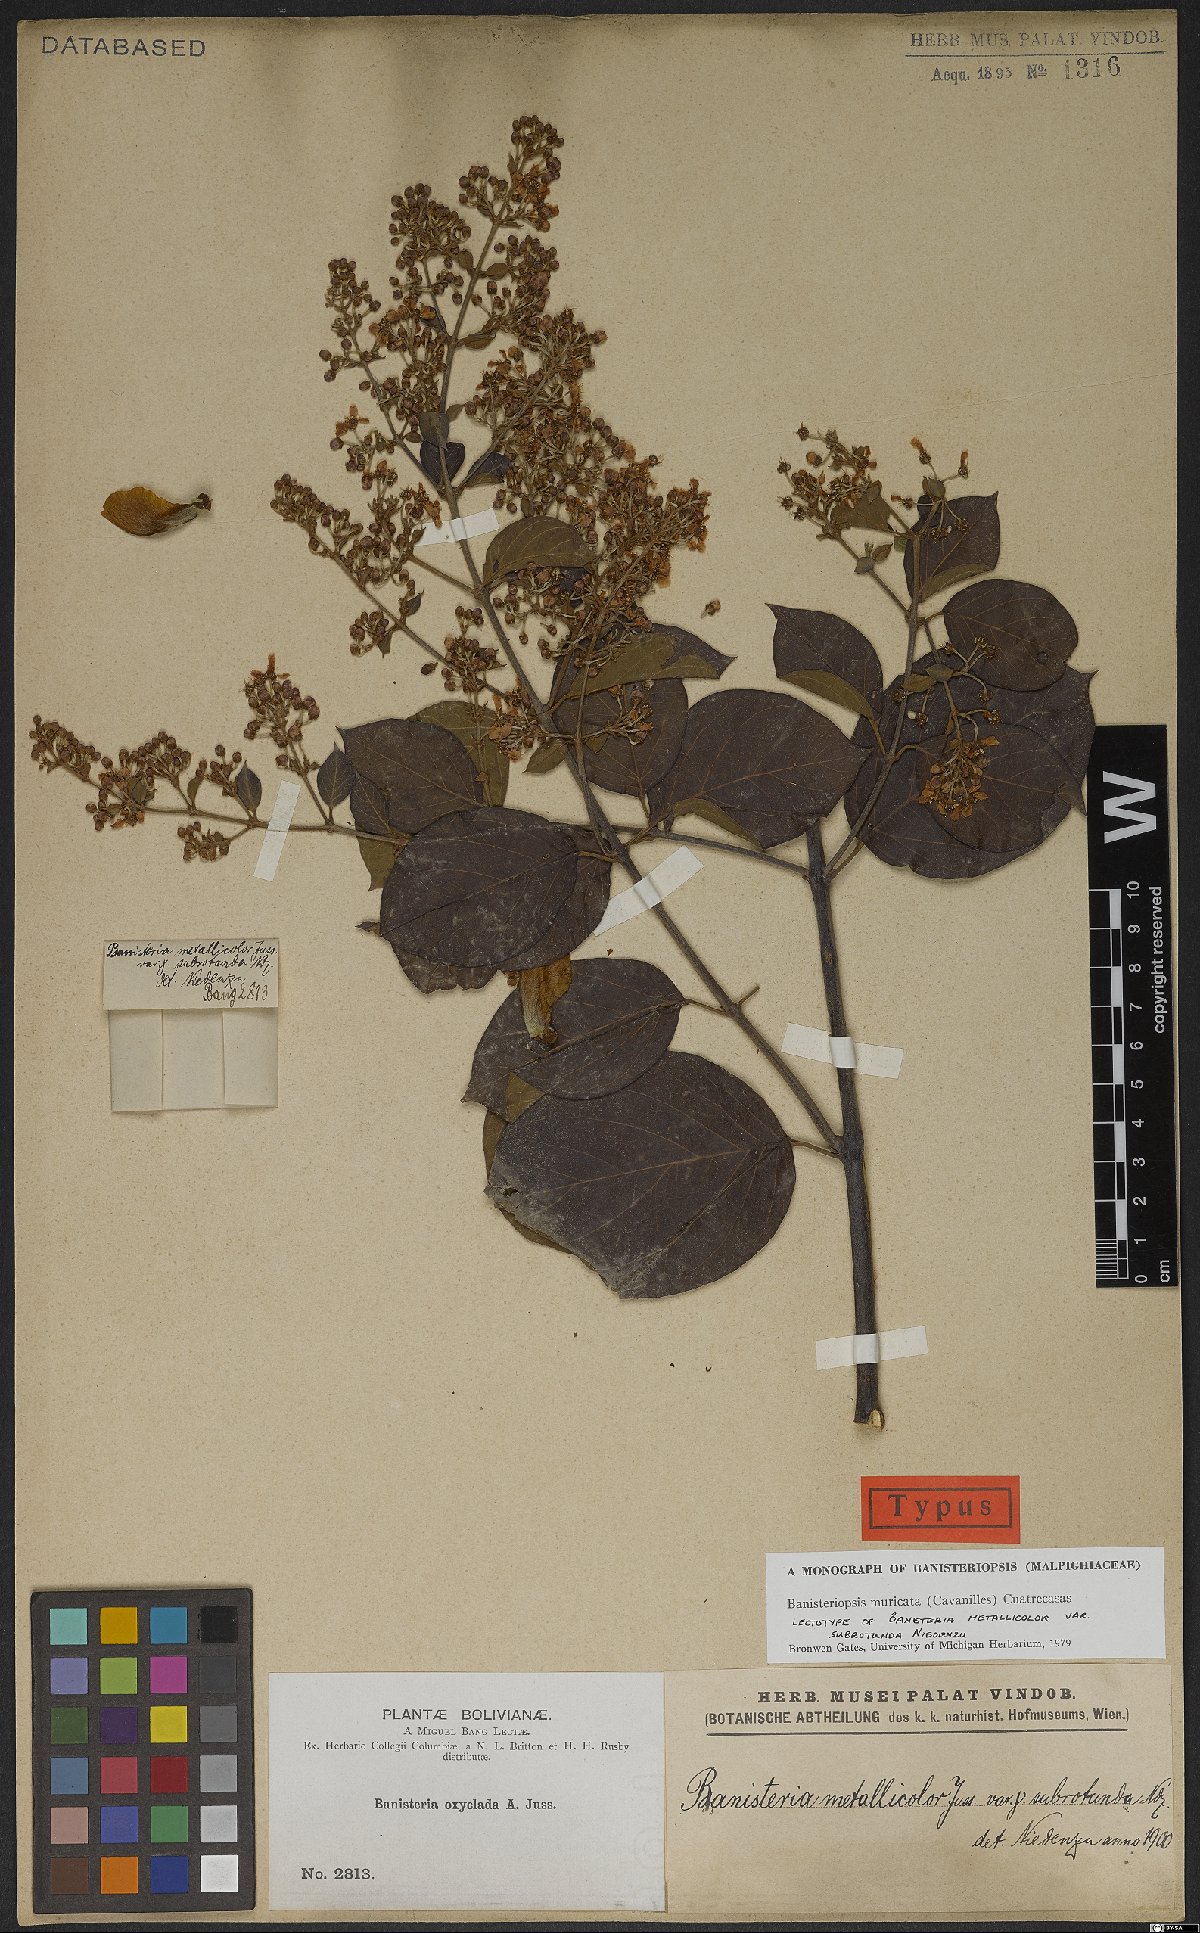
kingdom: Plantae
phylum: Tracheophyta
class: Magnoliopsida
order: Malpighiales
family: Malpighiaceae
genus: Banisteriopsis
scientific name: Banisteriopsis muricata
